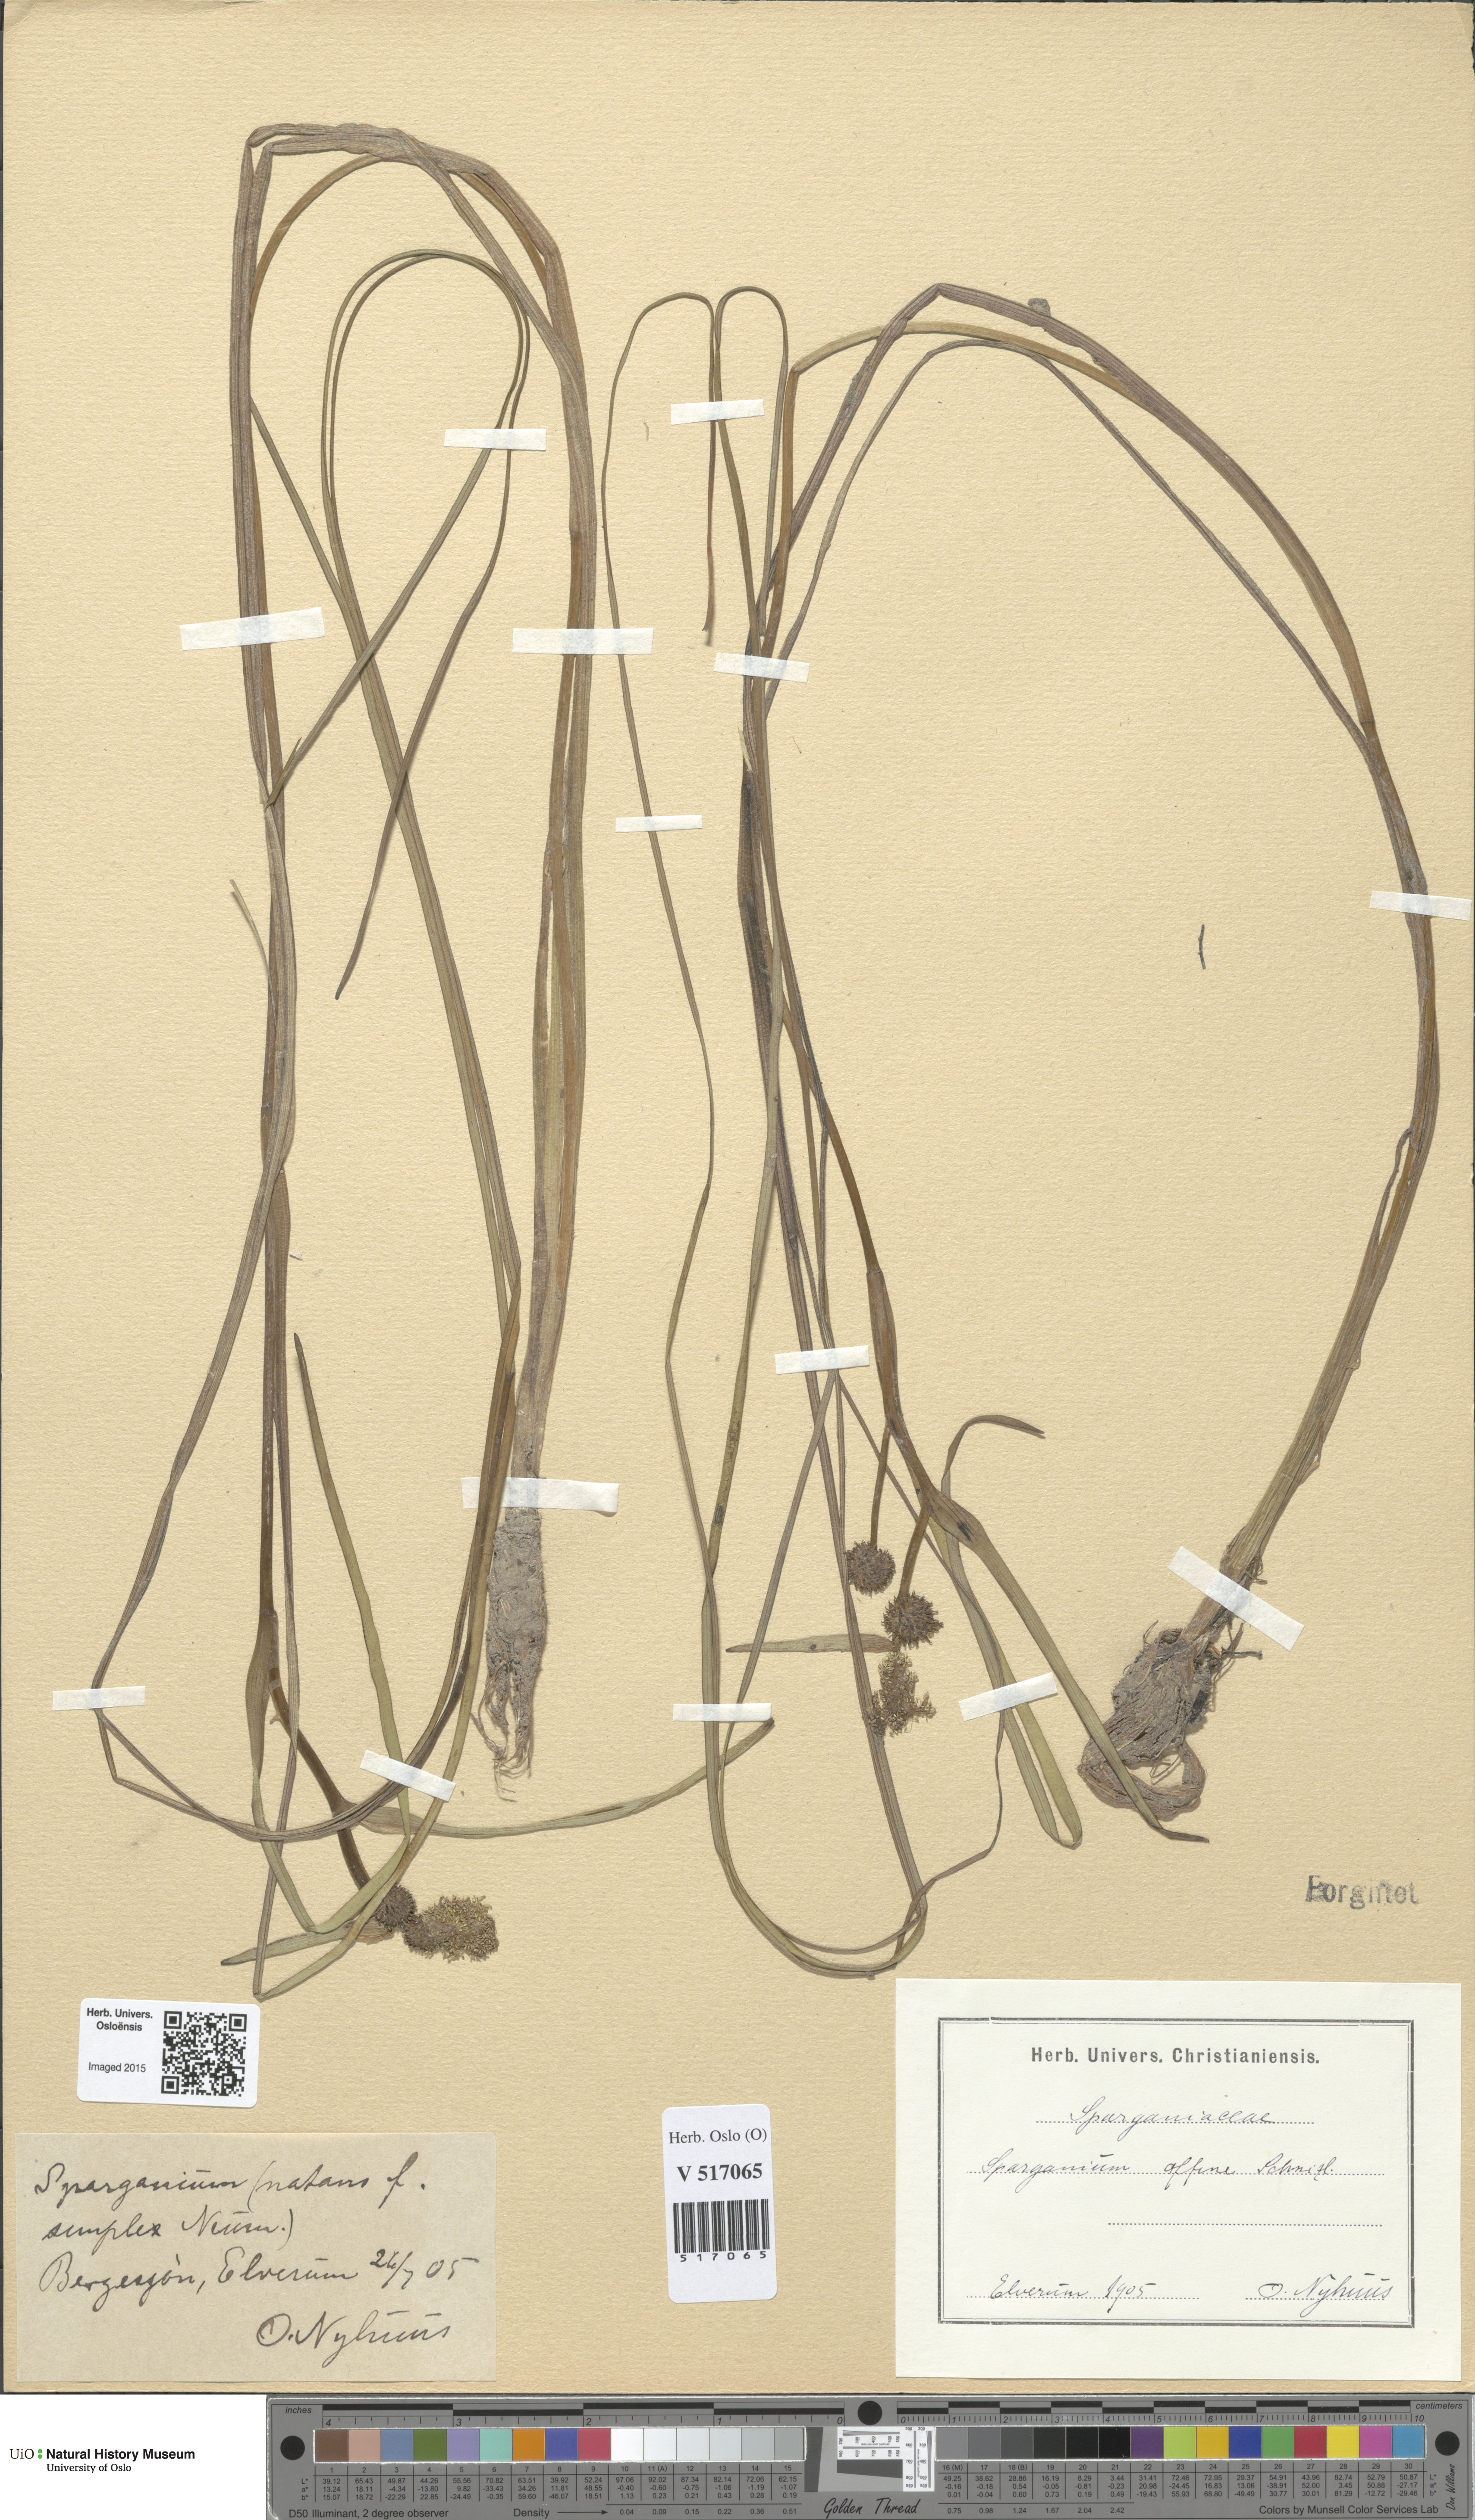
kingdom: Plantae
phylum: Tracheophyta
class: Liliopsida
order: Poales
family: Typhaceae
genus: Sparganium
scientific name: Sparganium angustifolium
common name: Floating bur-reed
